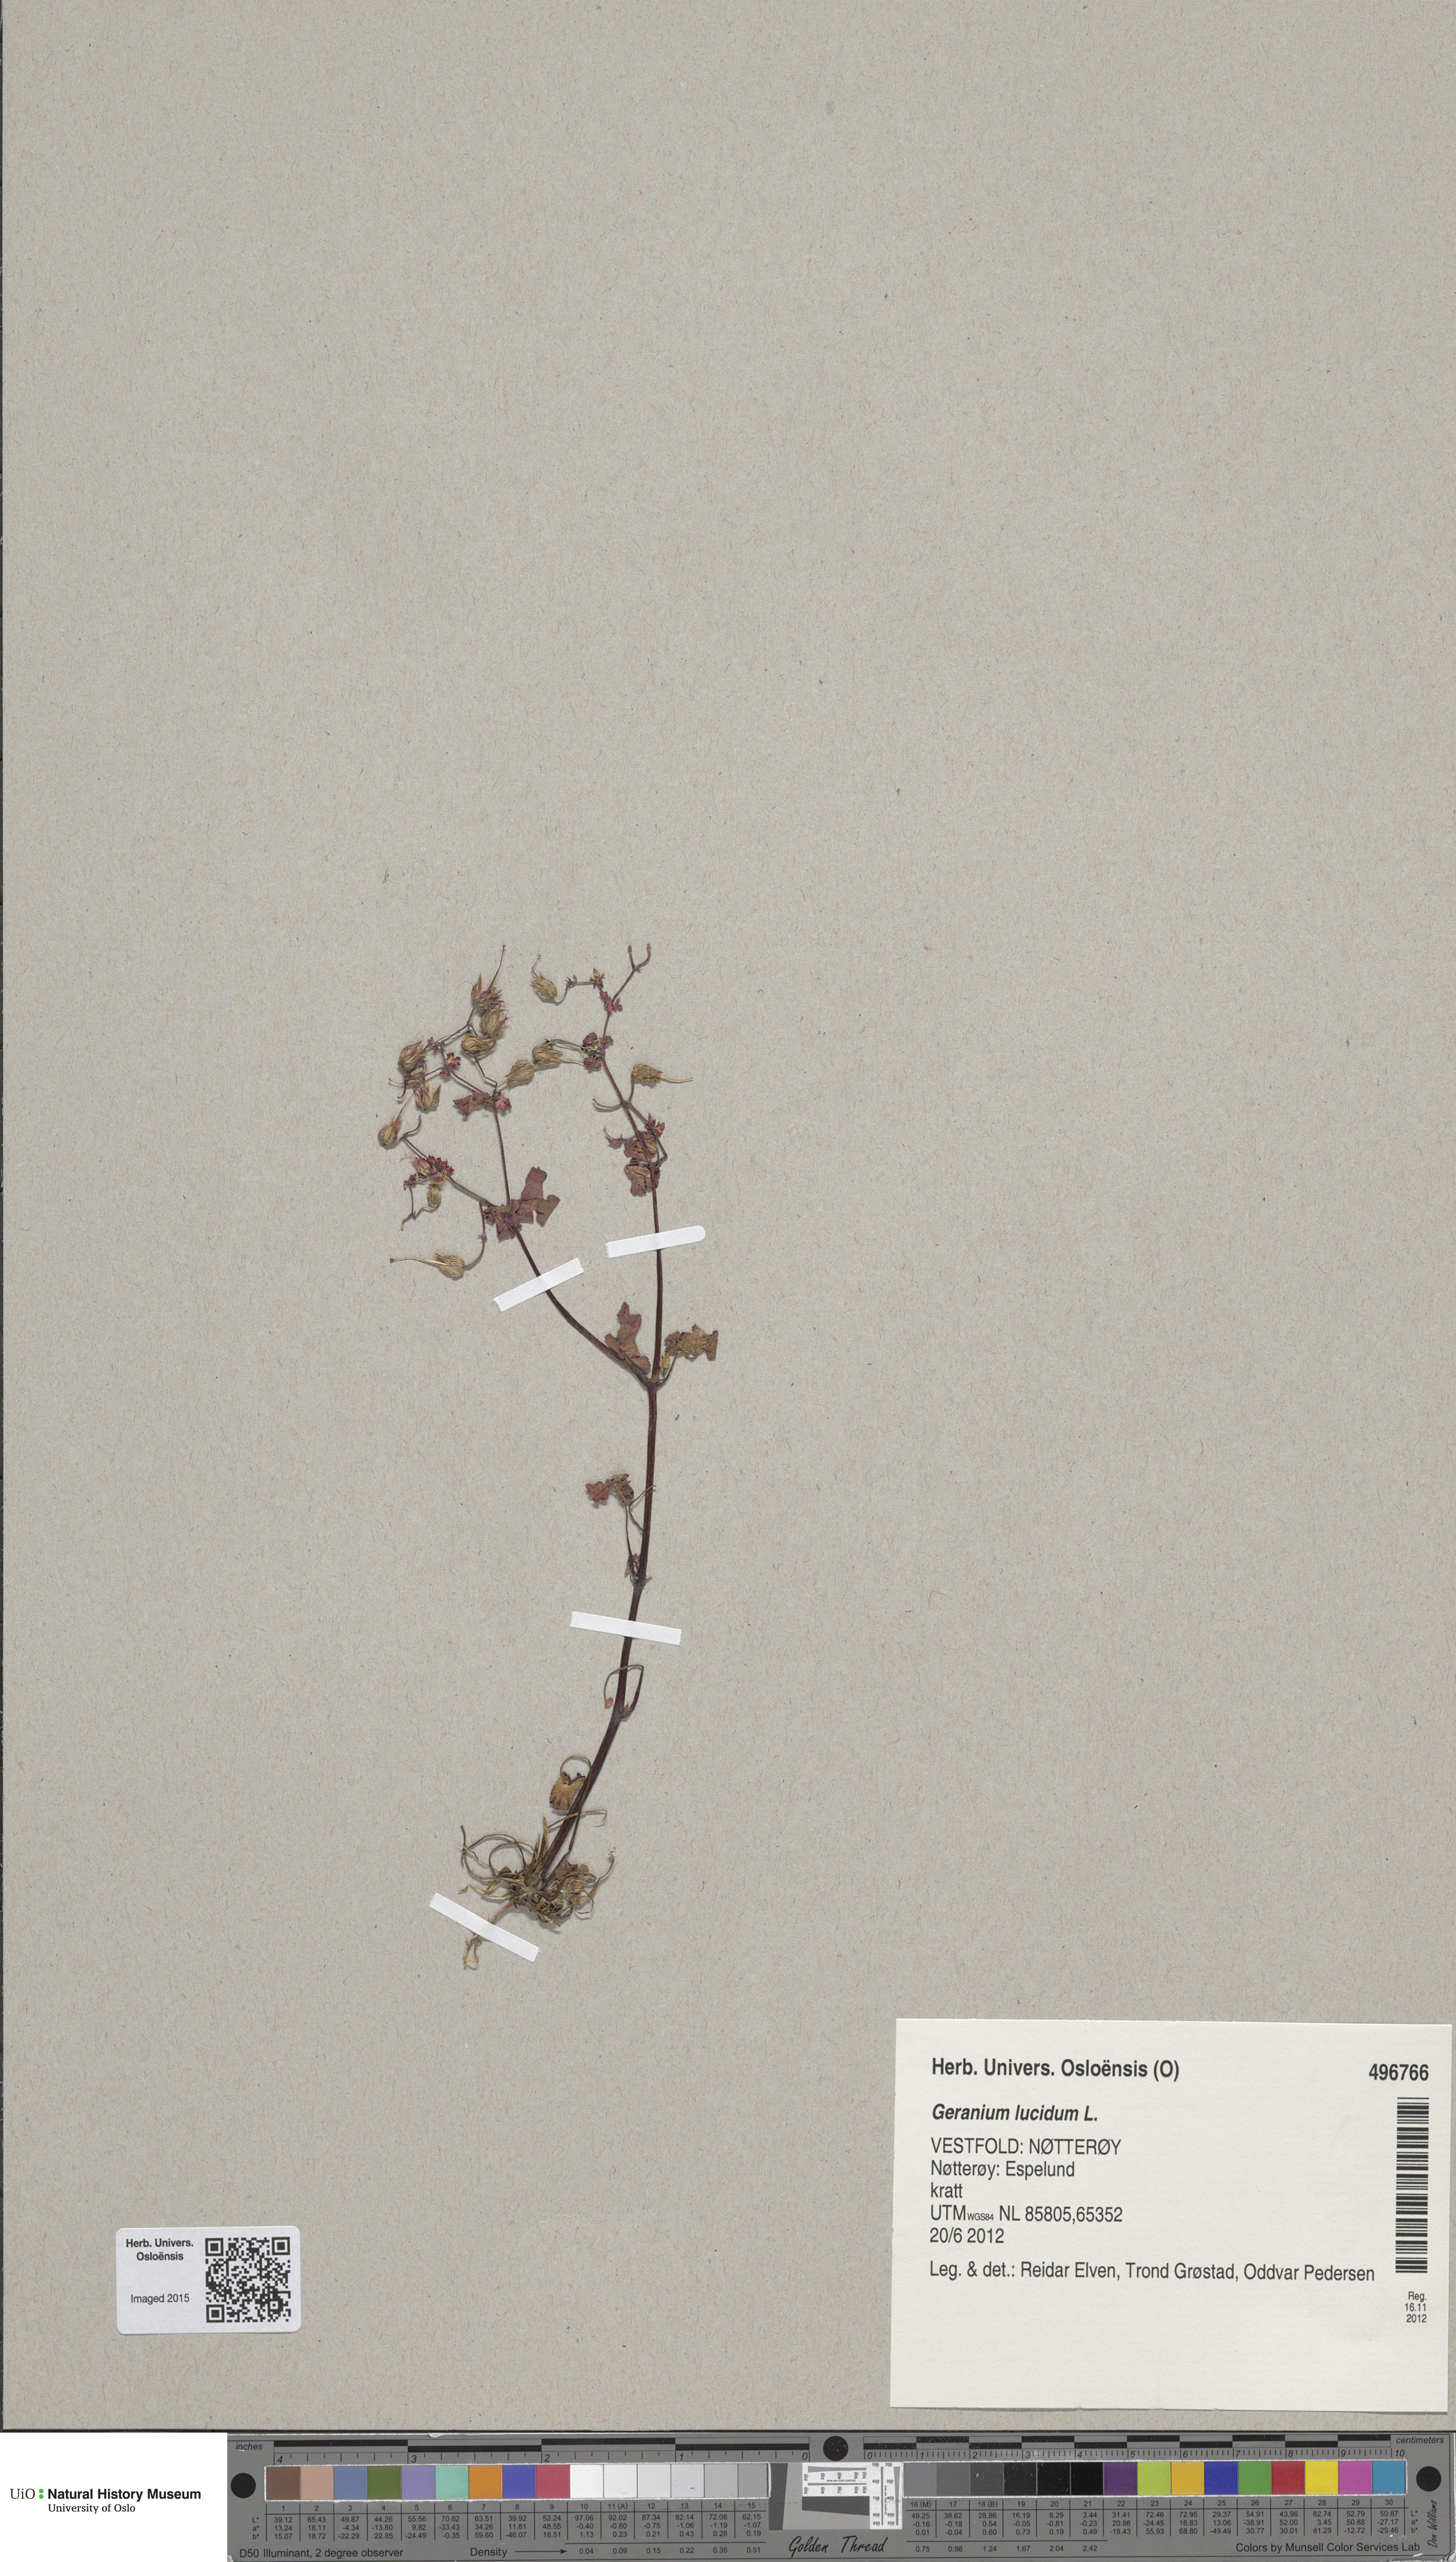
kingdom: Plantae
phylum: Tracheophyta
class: Magnoliopsida
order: Geraniales
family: Geraniaceae
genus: Geranium
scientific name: Geranium lucidum
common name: Shining crane's-bill
